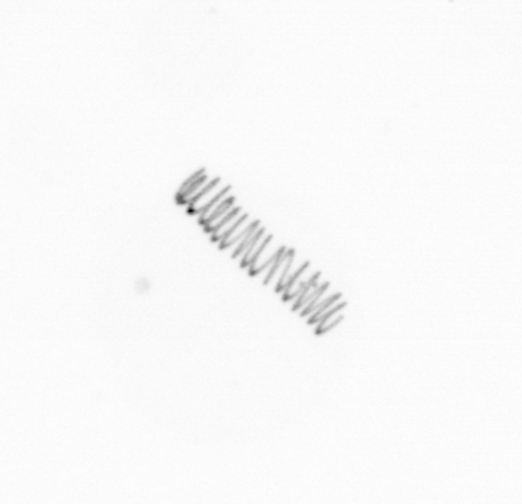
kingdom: Chromista
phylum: Ochrophyta
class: Bacillariophyceae
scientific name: Bacillariophyceae
